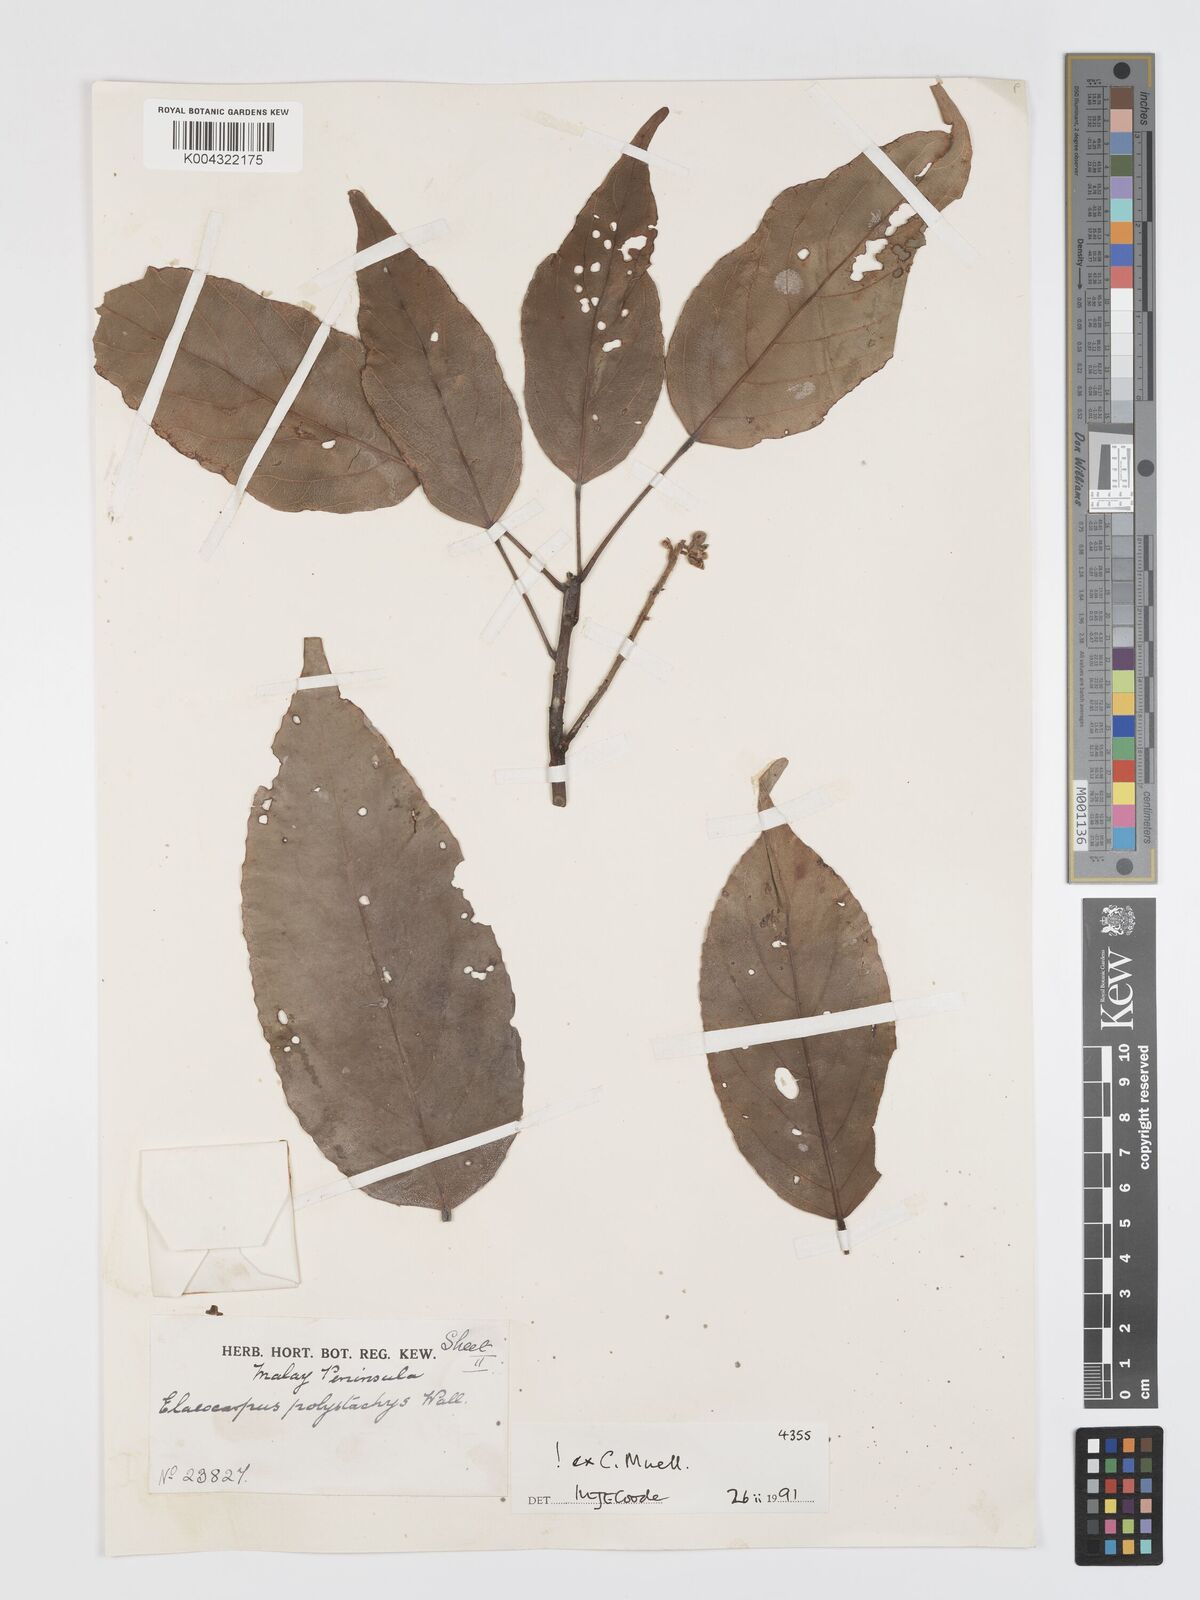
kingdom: Plantae
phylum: Tracheophyta
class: Magnoliopsida
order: Oxalidales
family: Elaeocarpaceae
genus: Elaeocarpus
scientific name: Elaeocarpus polystachyus
